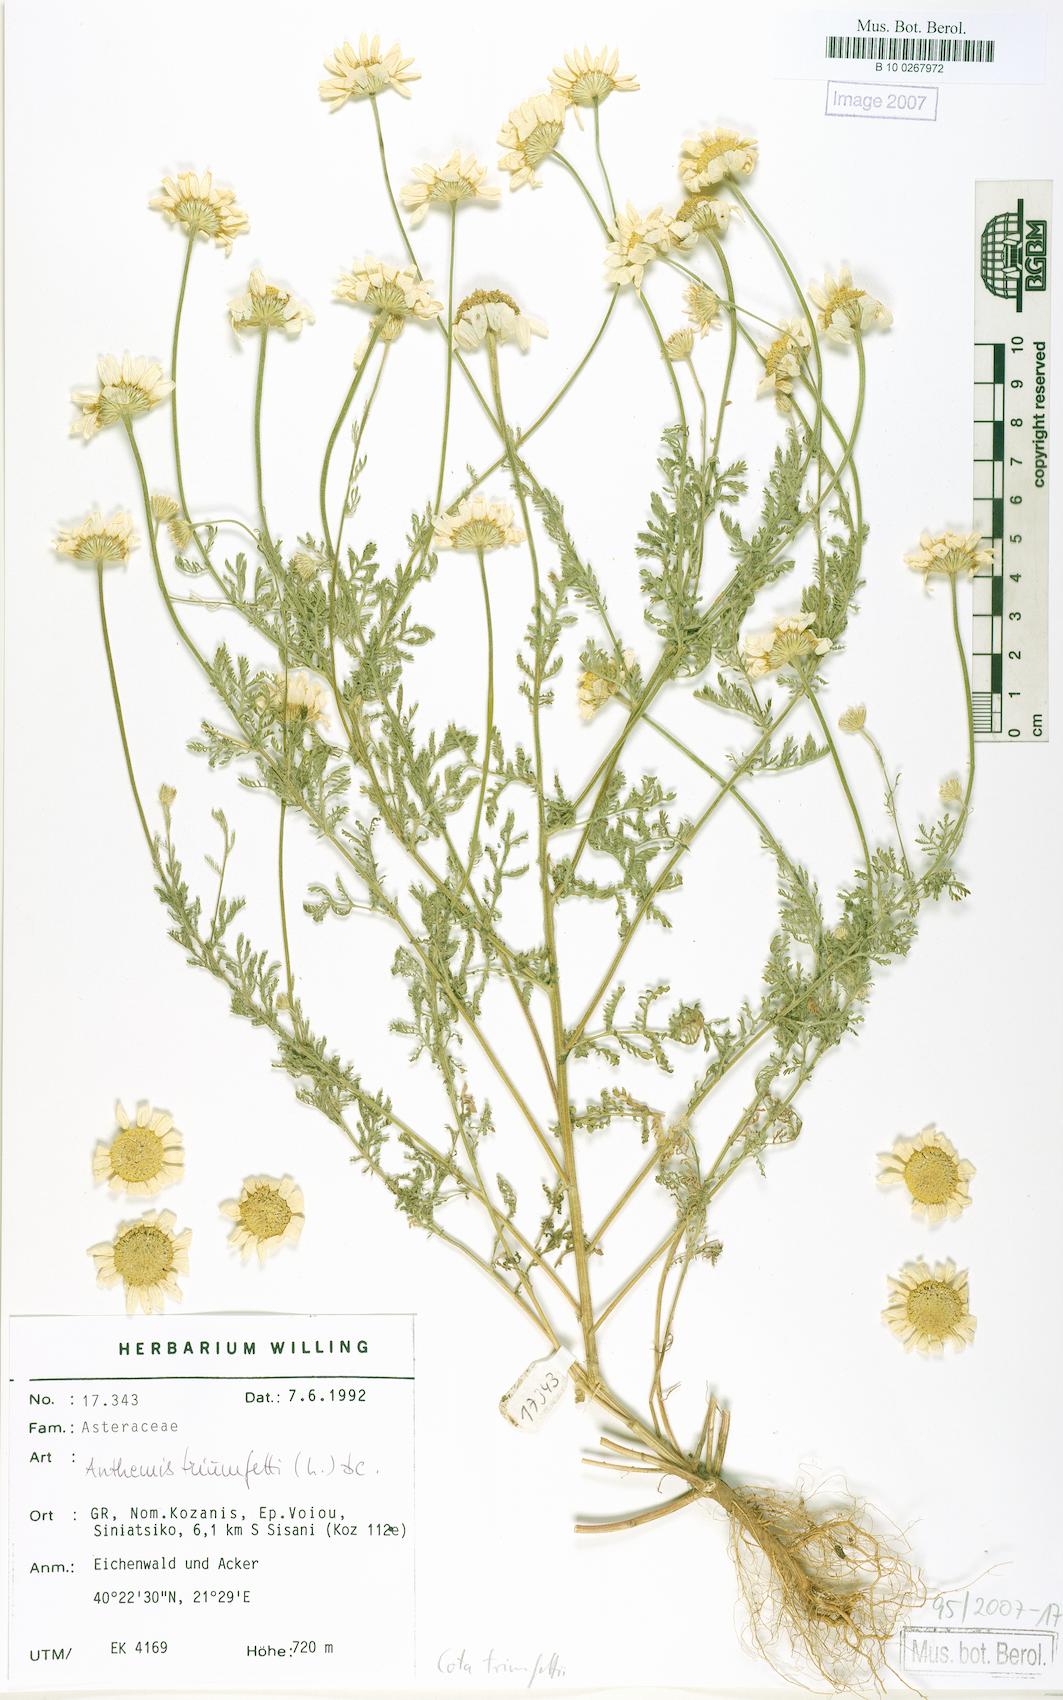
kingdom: Plantae
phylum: Tracheophyta
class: Magnoliopsida
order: Asterales
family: Asteraceae
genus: Cota
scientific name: Cota altissima
